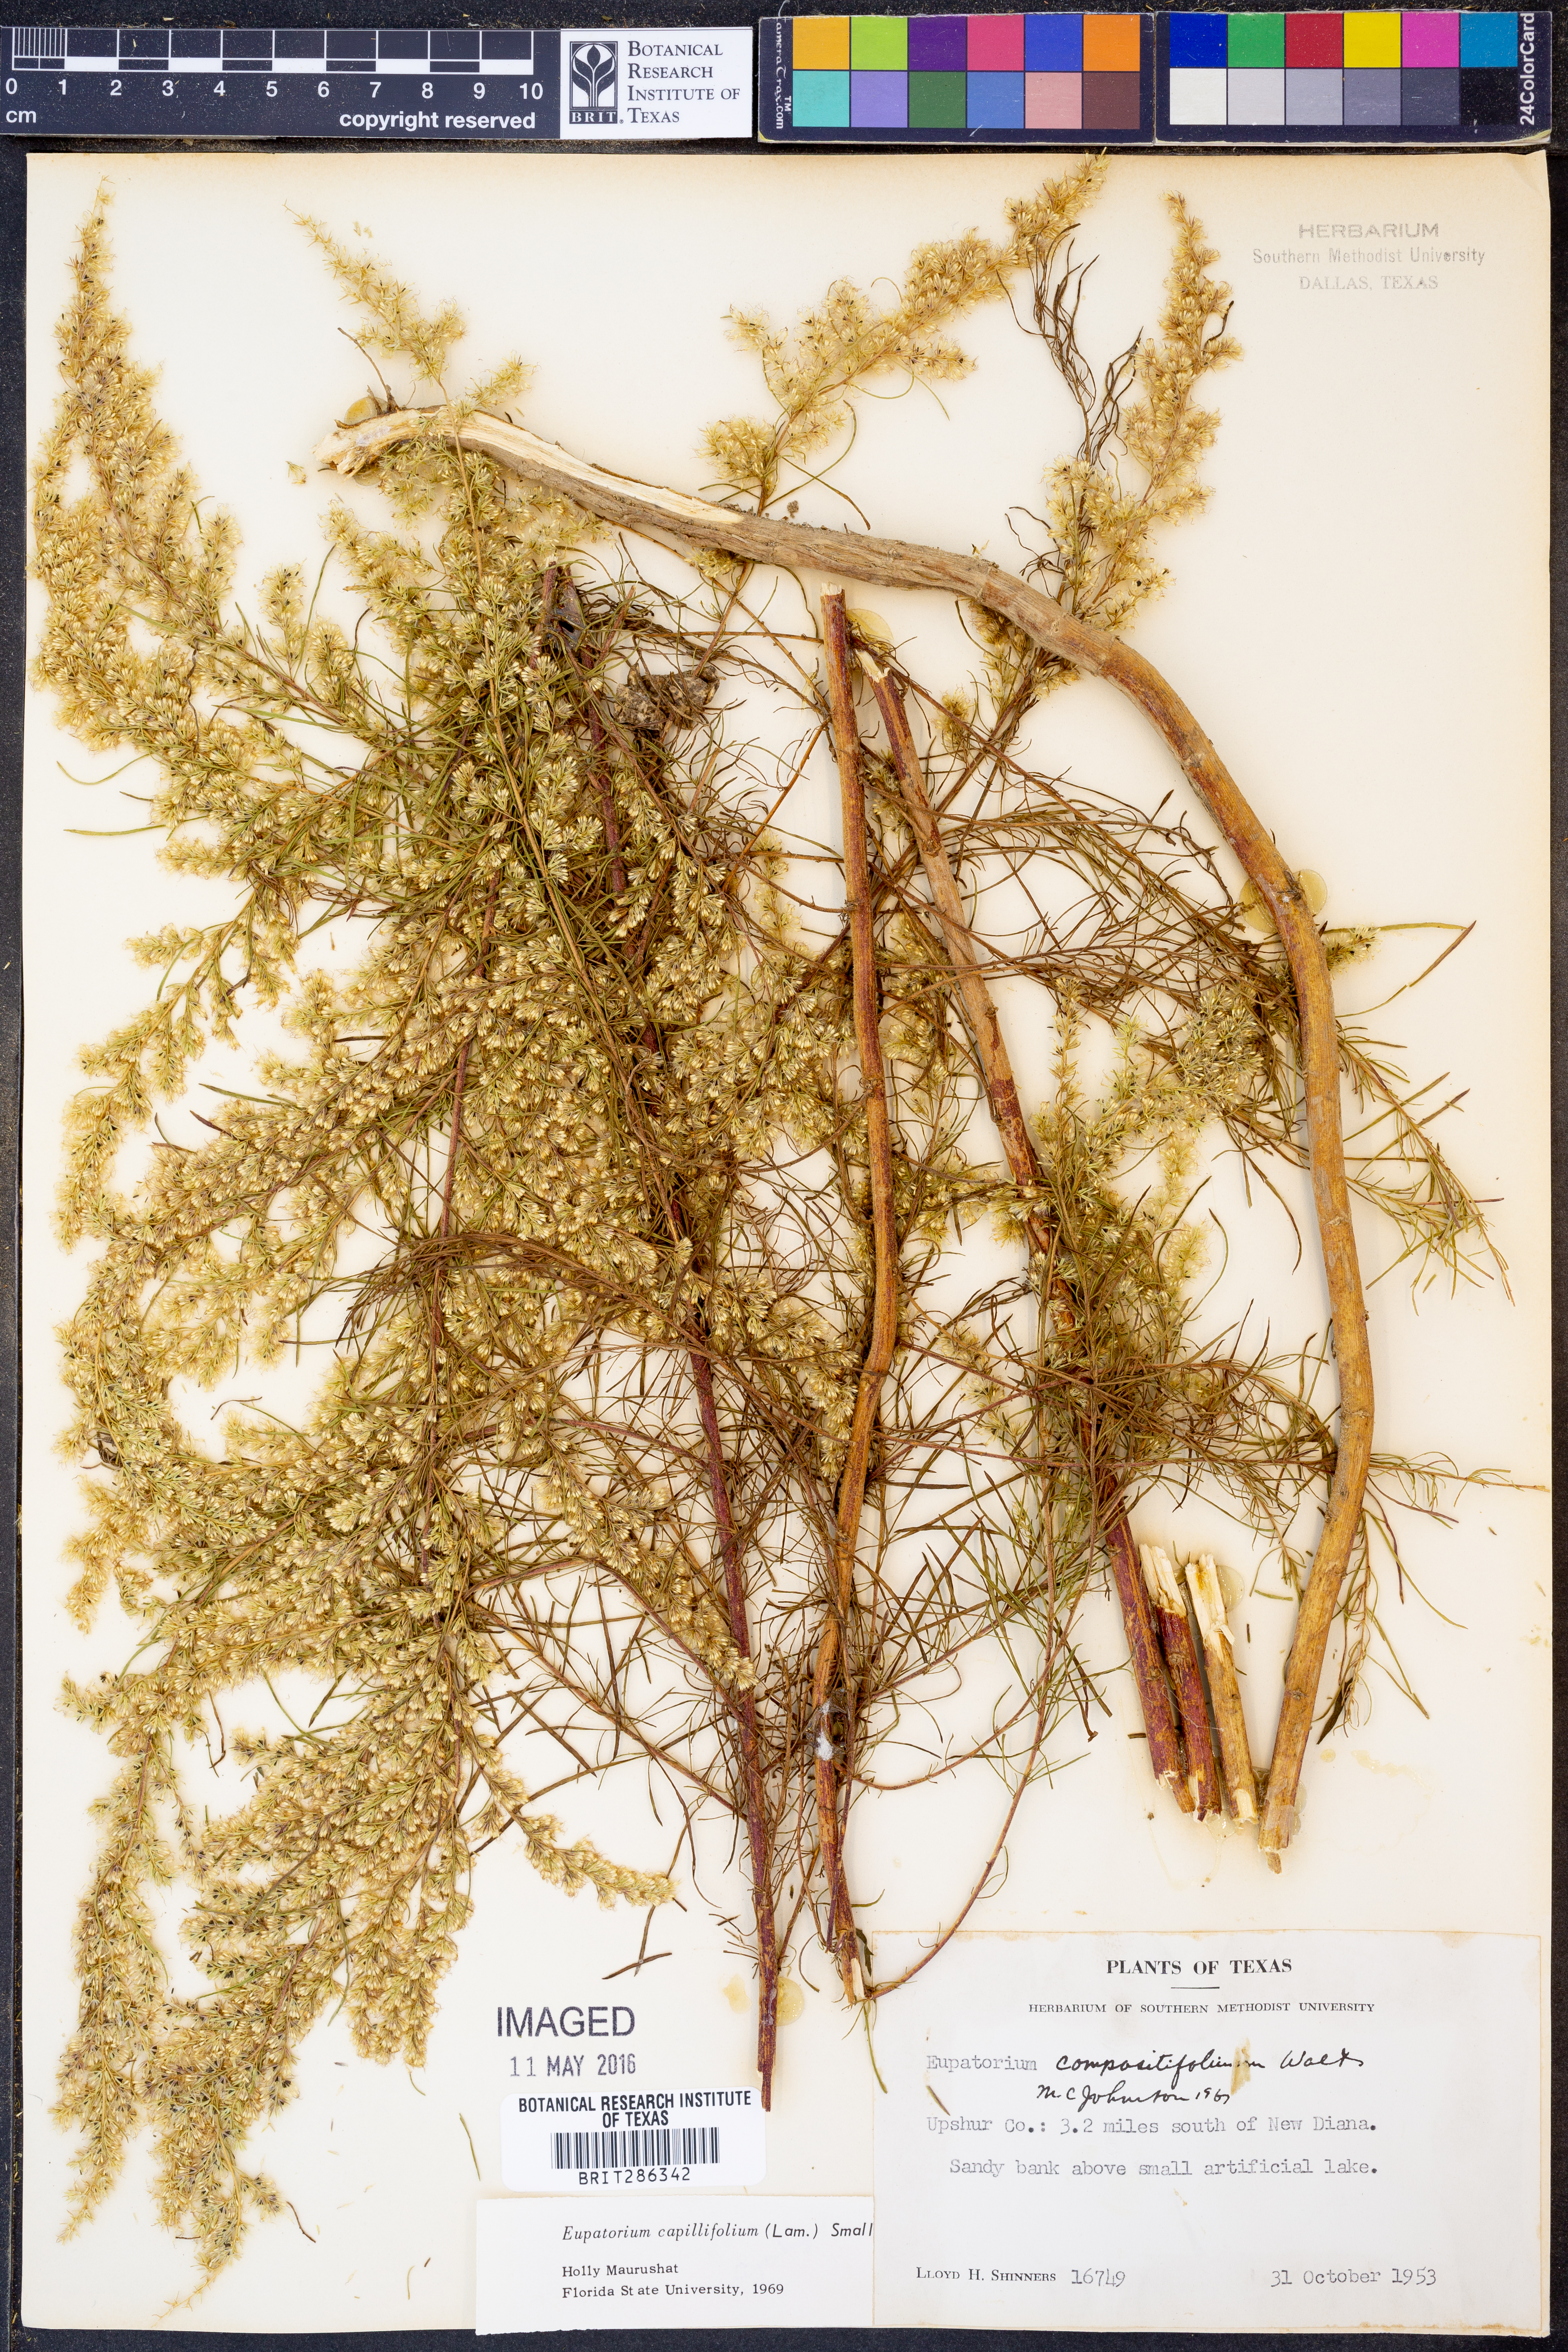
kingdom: Plantae
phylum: Tracheophyta
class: Magnoliopsida
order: Asterales
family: Asteraceae
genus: Eupatorium
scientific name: Eupatorium compositifolium
